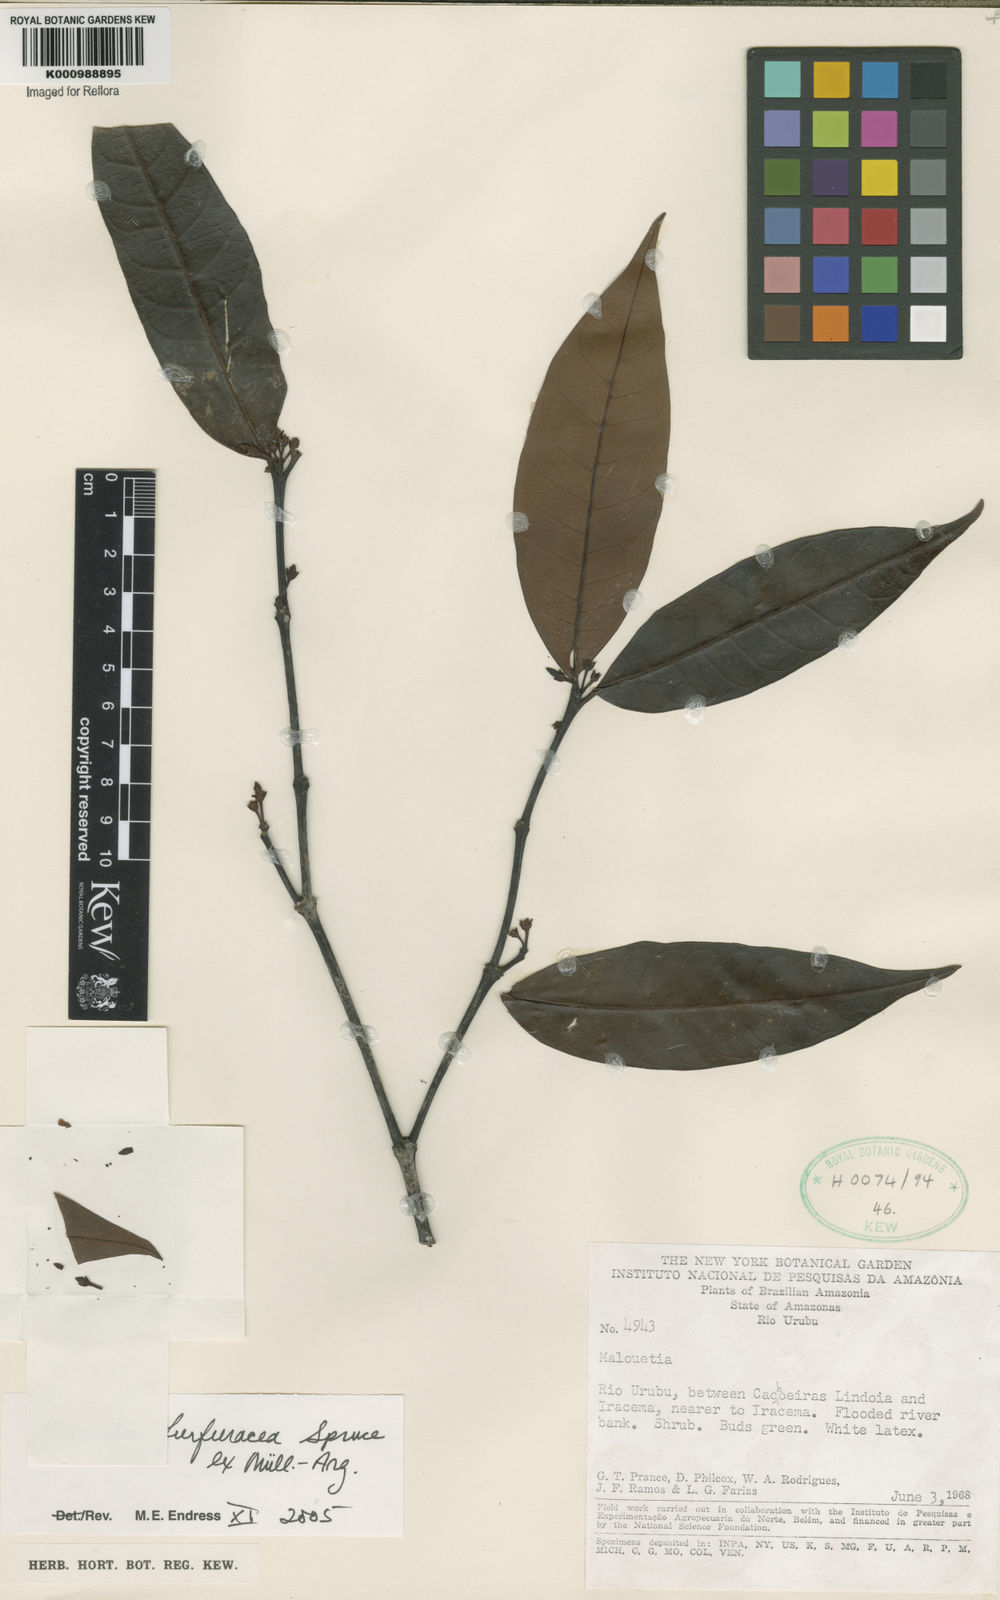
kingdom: Plantae
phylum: Tracheophyta
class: Magnoliopsida
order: Gentianales
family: Apocynaceae
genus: Malouetia
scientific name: Malouetia
